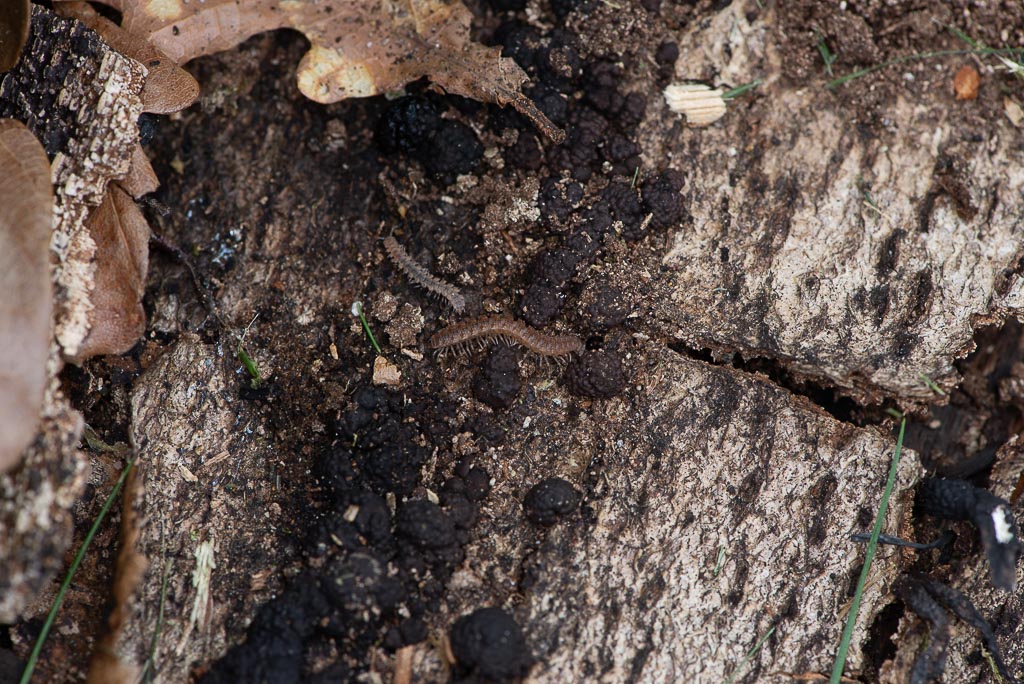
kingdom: Fungi
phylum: Ascomycota
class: Sordariomycetes
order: Xylariales
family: Hypoxylaceae
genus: Jackrogersella
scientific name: Jackrogersella
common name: kulbær
